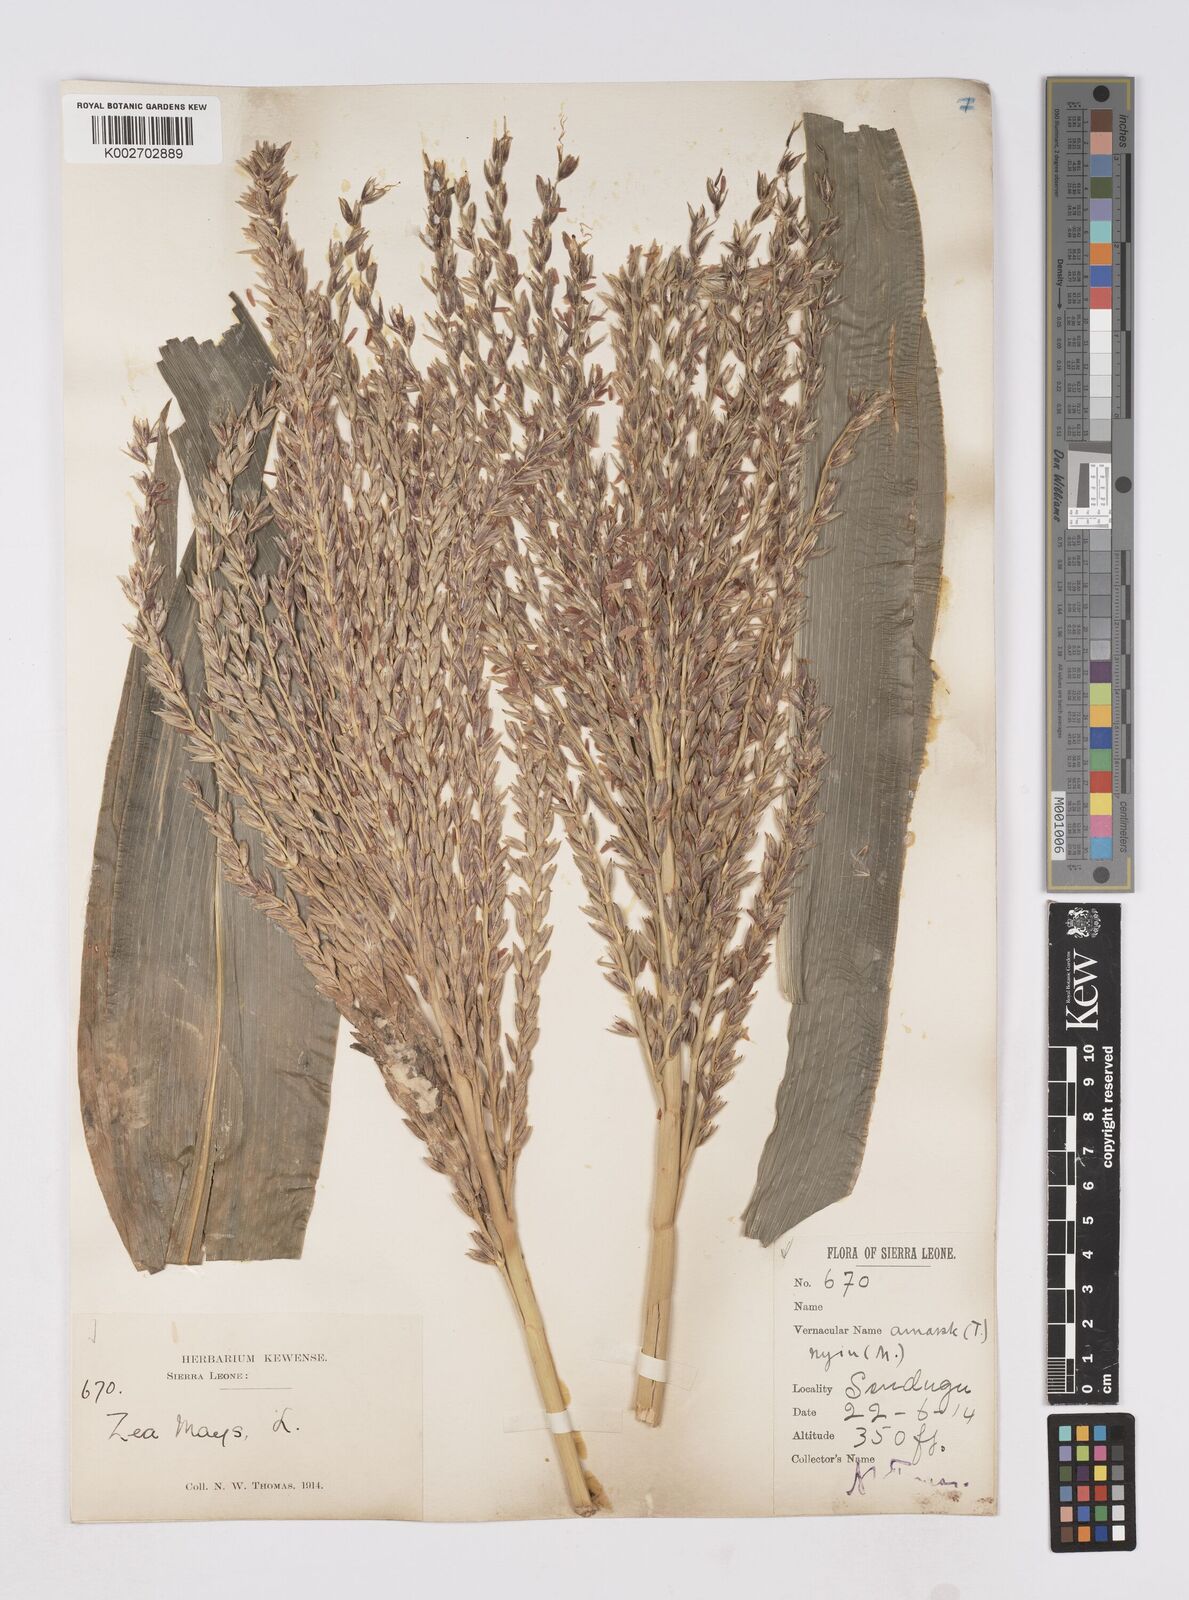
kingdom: Plantae
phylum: Tracheophyta
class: Liliopsida
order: Poales
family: Poaceae
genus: Zea
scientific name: Zea mays
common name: Maize
